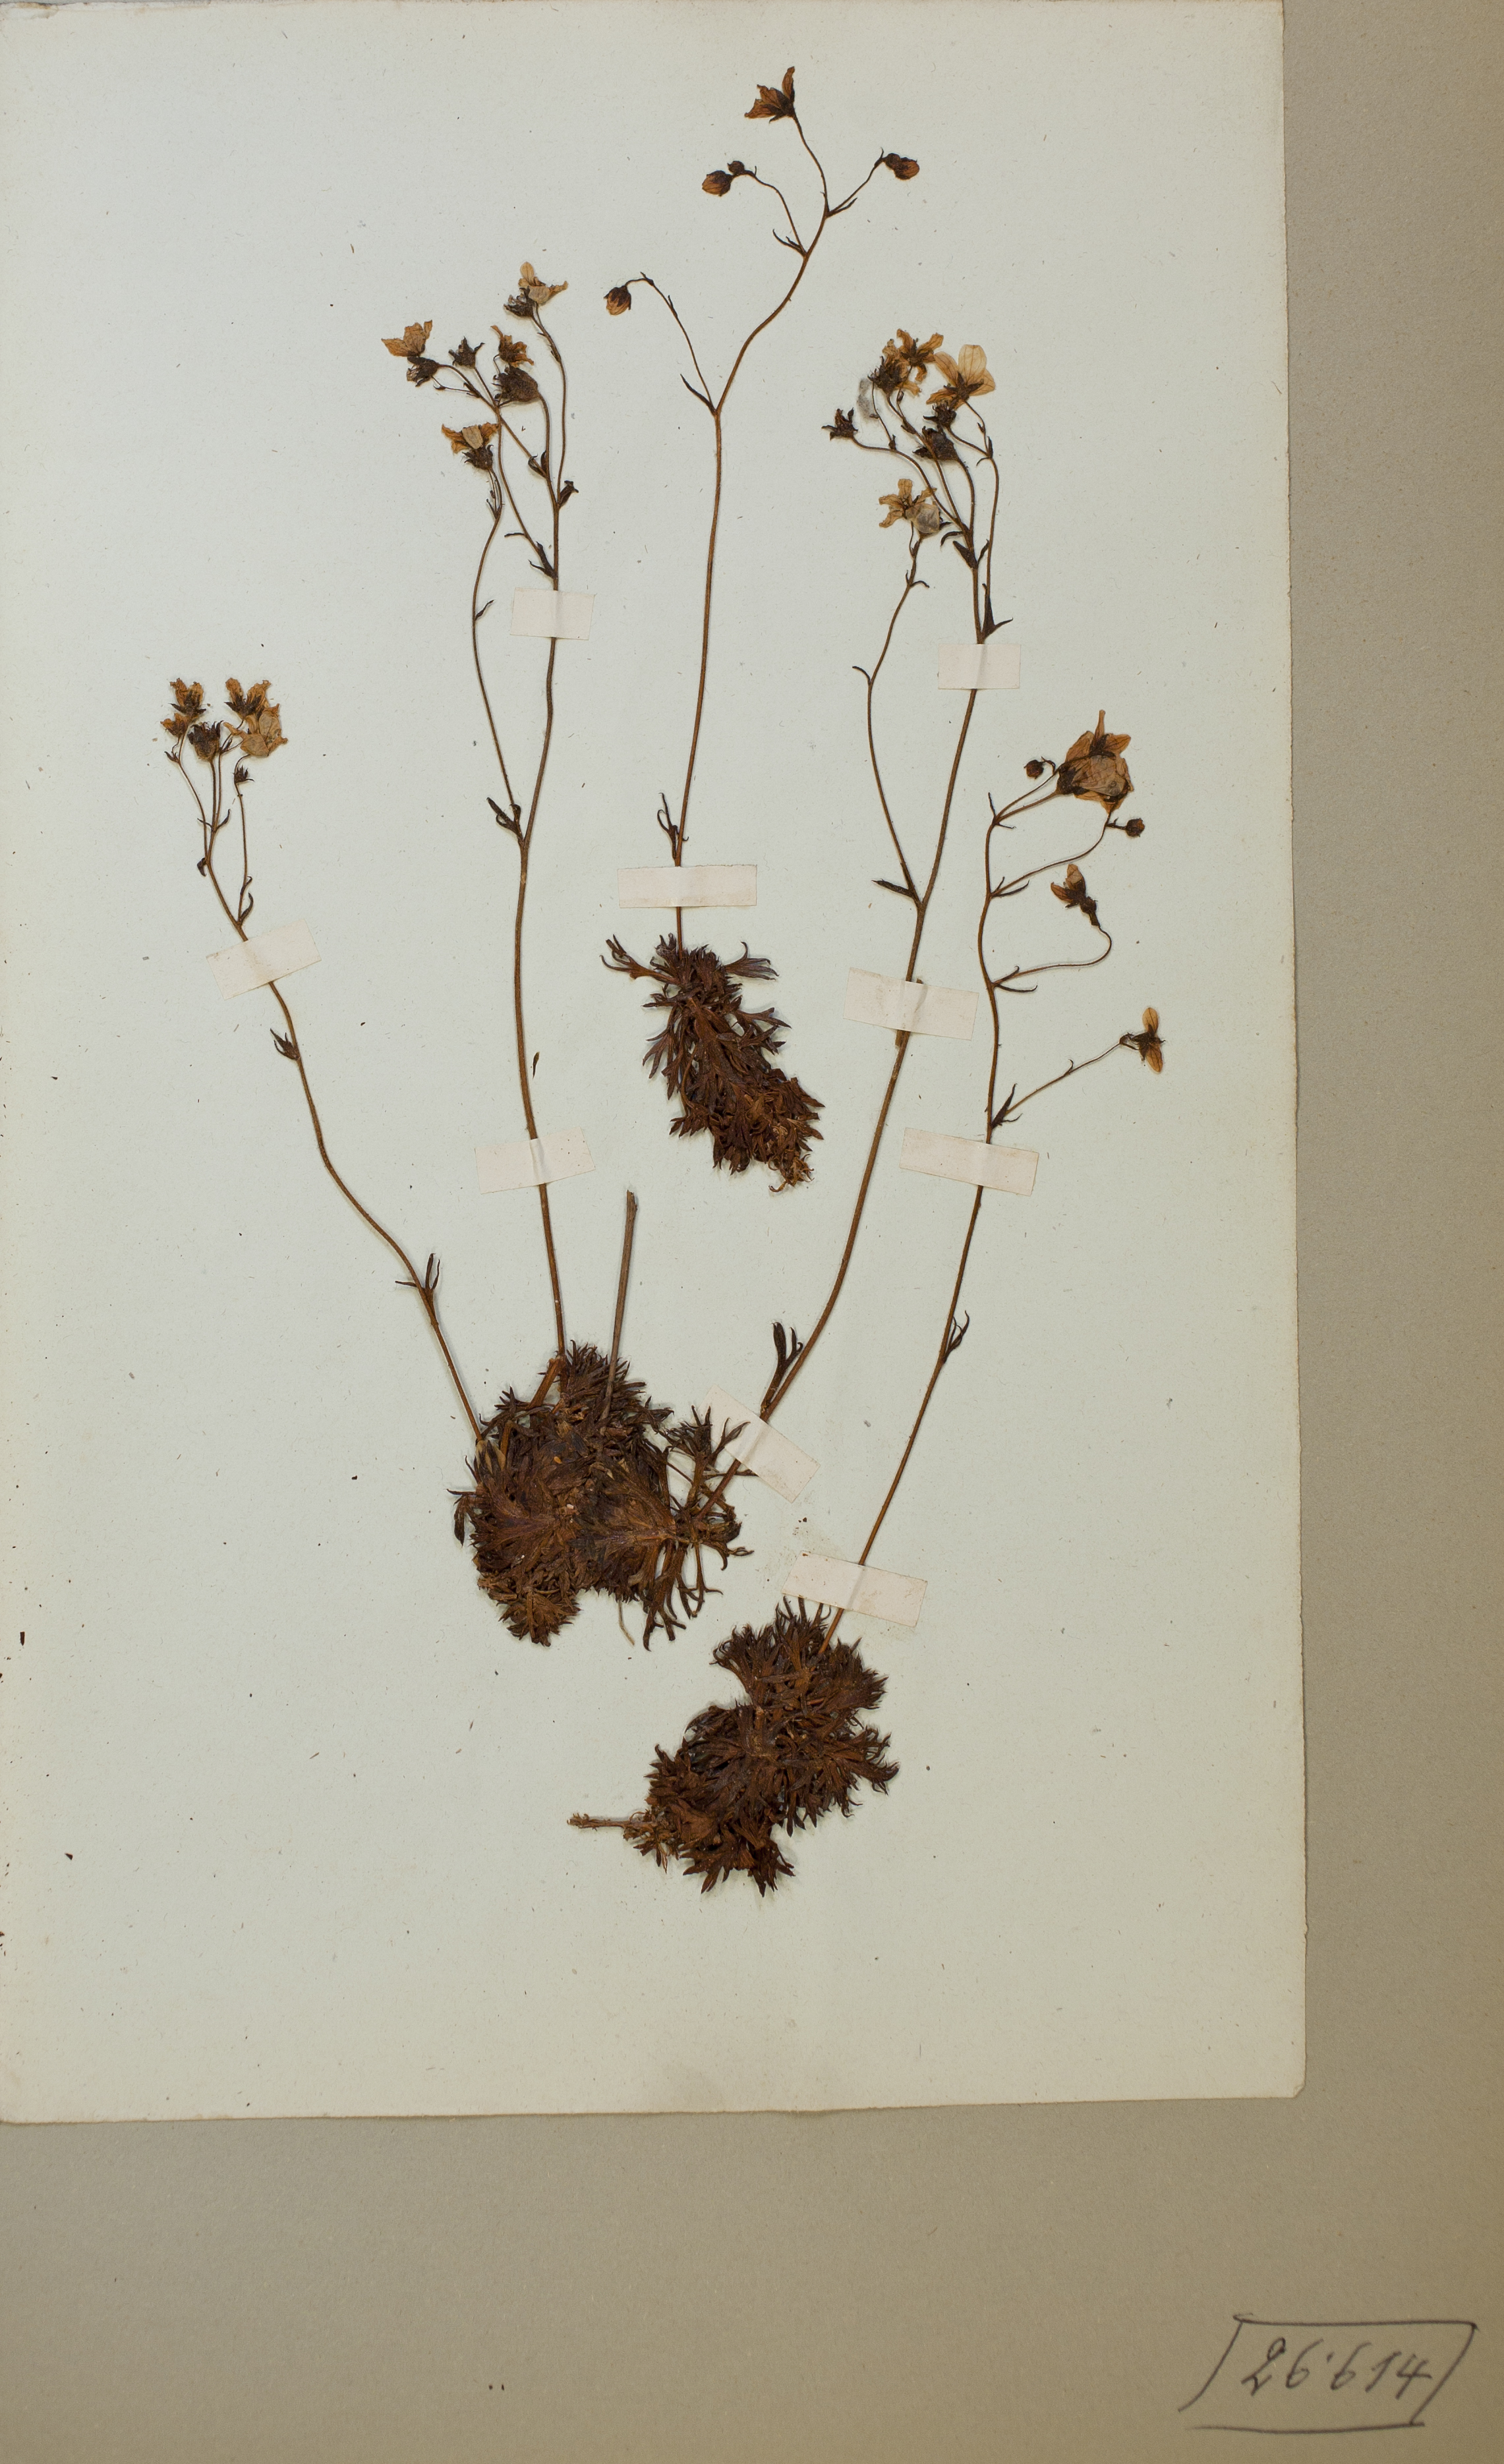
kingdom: Plantae
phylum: Tracheophyta
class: Magnoliopsida
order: Saxifragales
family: Saxifragaceae
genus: Saxifraga
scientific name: Saxifraga hypnoides
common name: Mossy saxifrage
